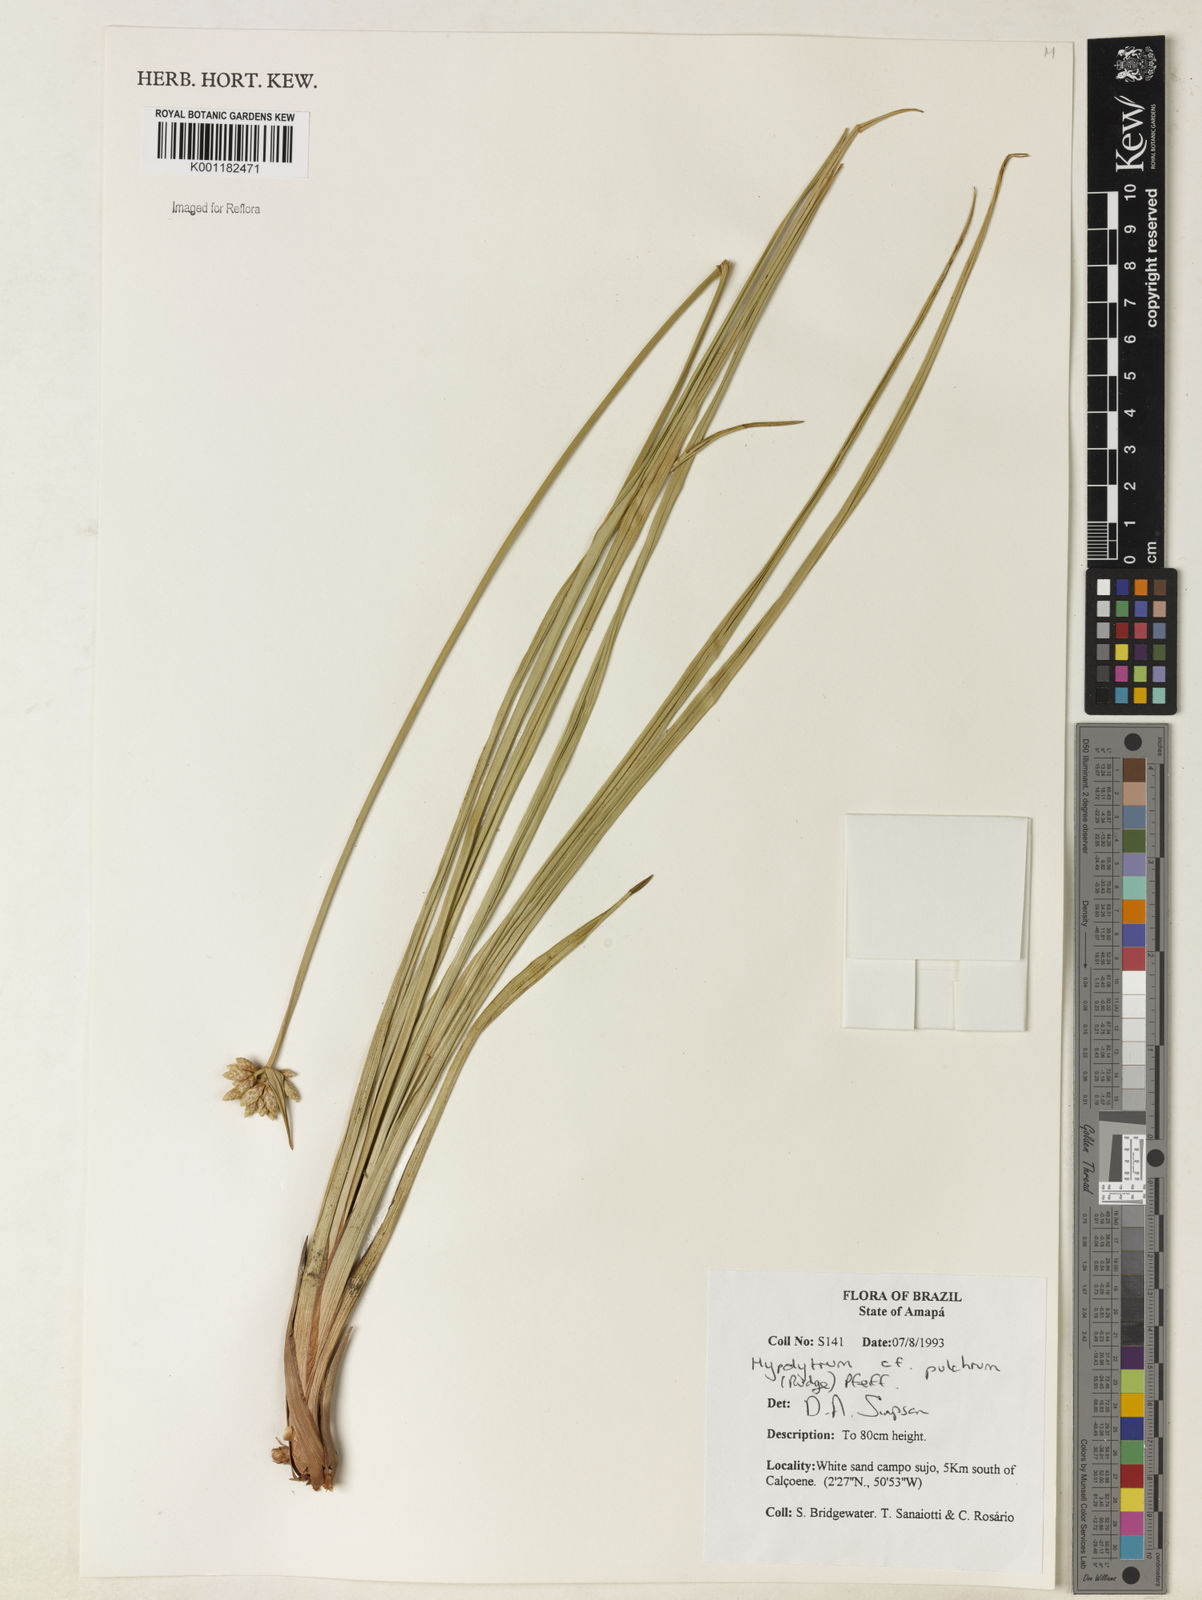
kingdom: Plantae
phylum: Tracheophyta
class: Liliopsida
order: Poales
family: Cyperaceae
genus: Hypolytrum
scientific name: Hypolytrum pulchrum
